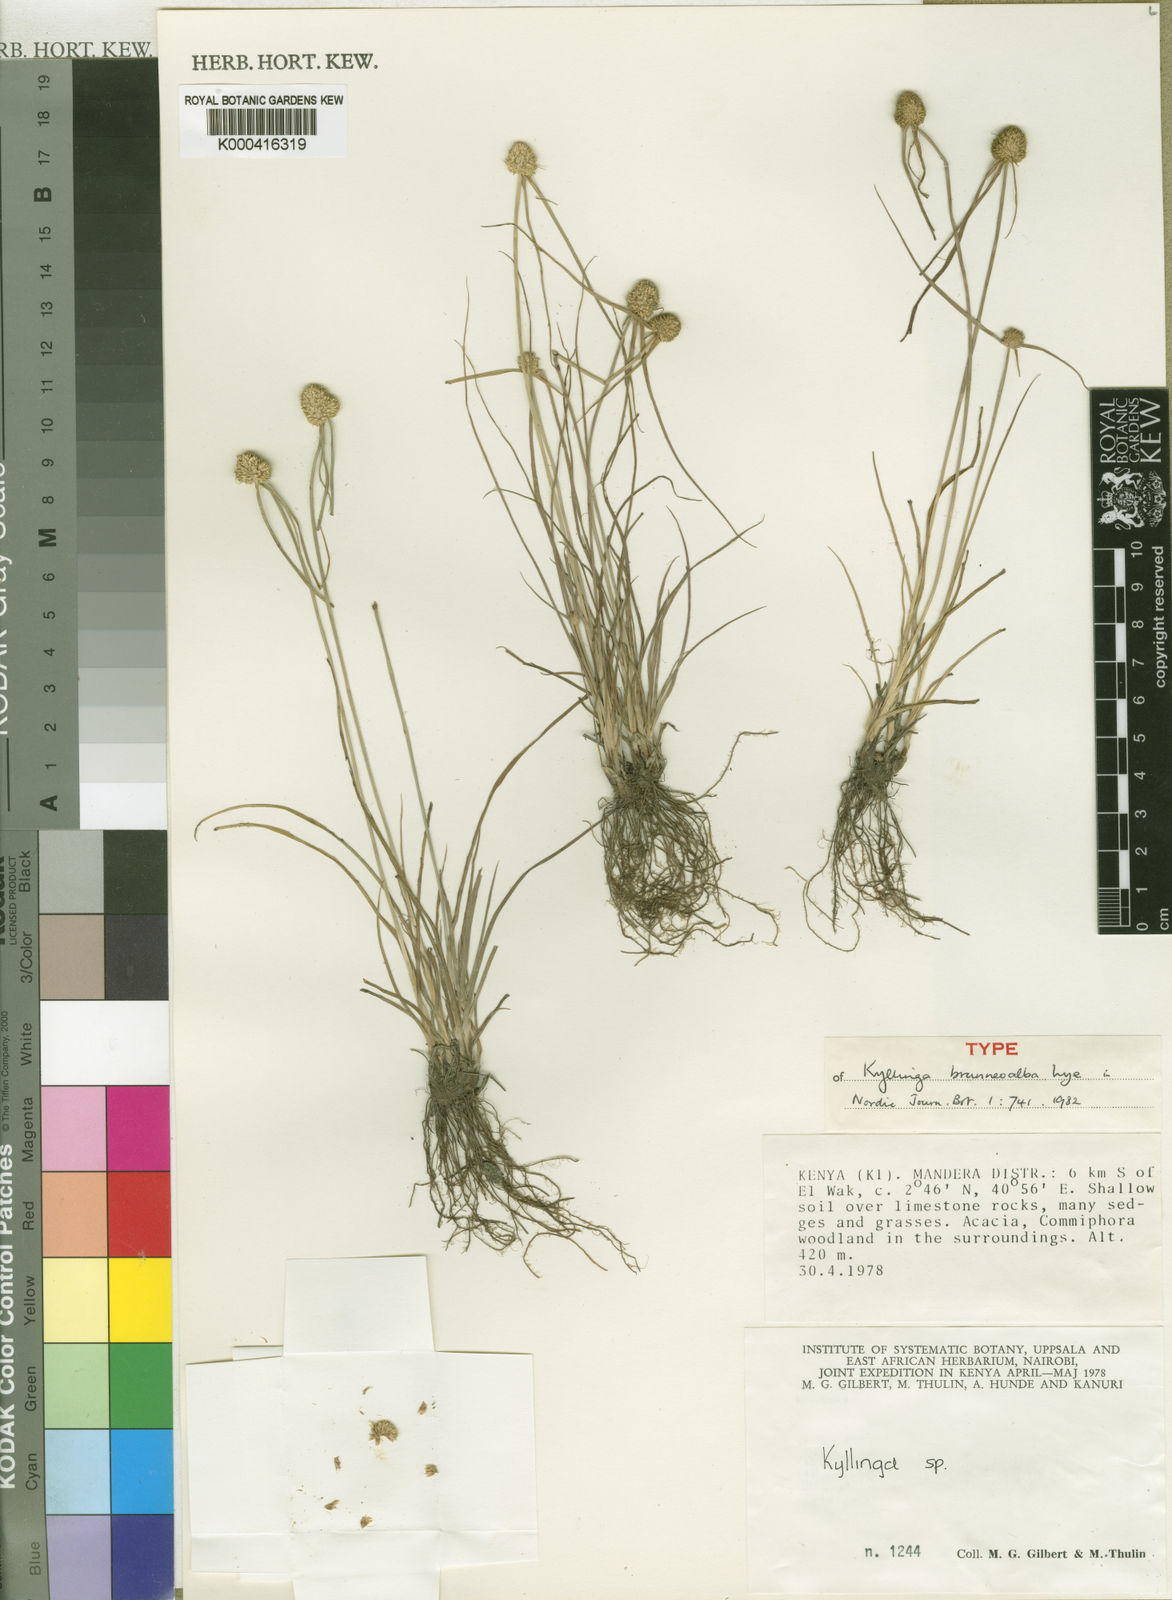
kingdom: Plantae
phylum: Tracheophyta
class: Liliopsida
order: Poales
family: Cyperaceae
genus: Cyperus
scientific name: Cyperus brunneoalbus
